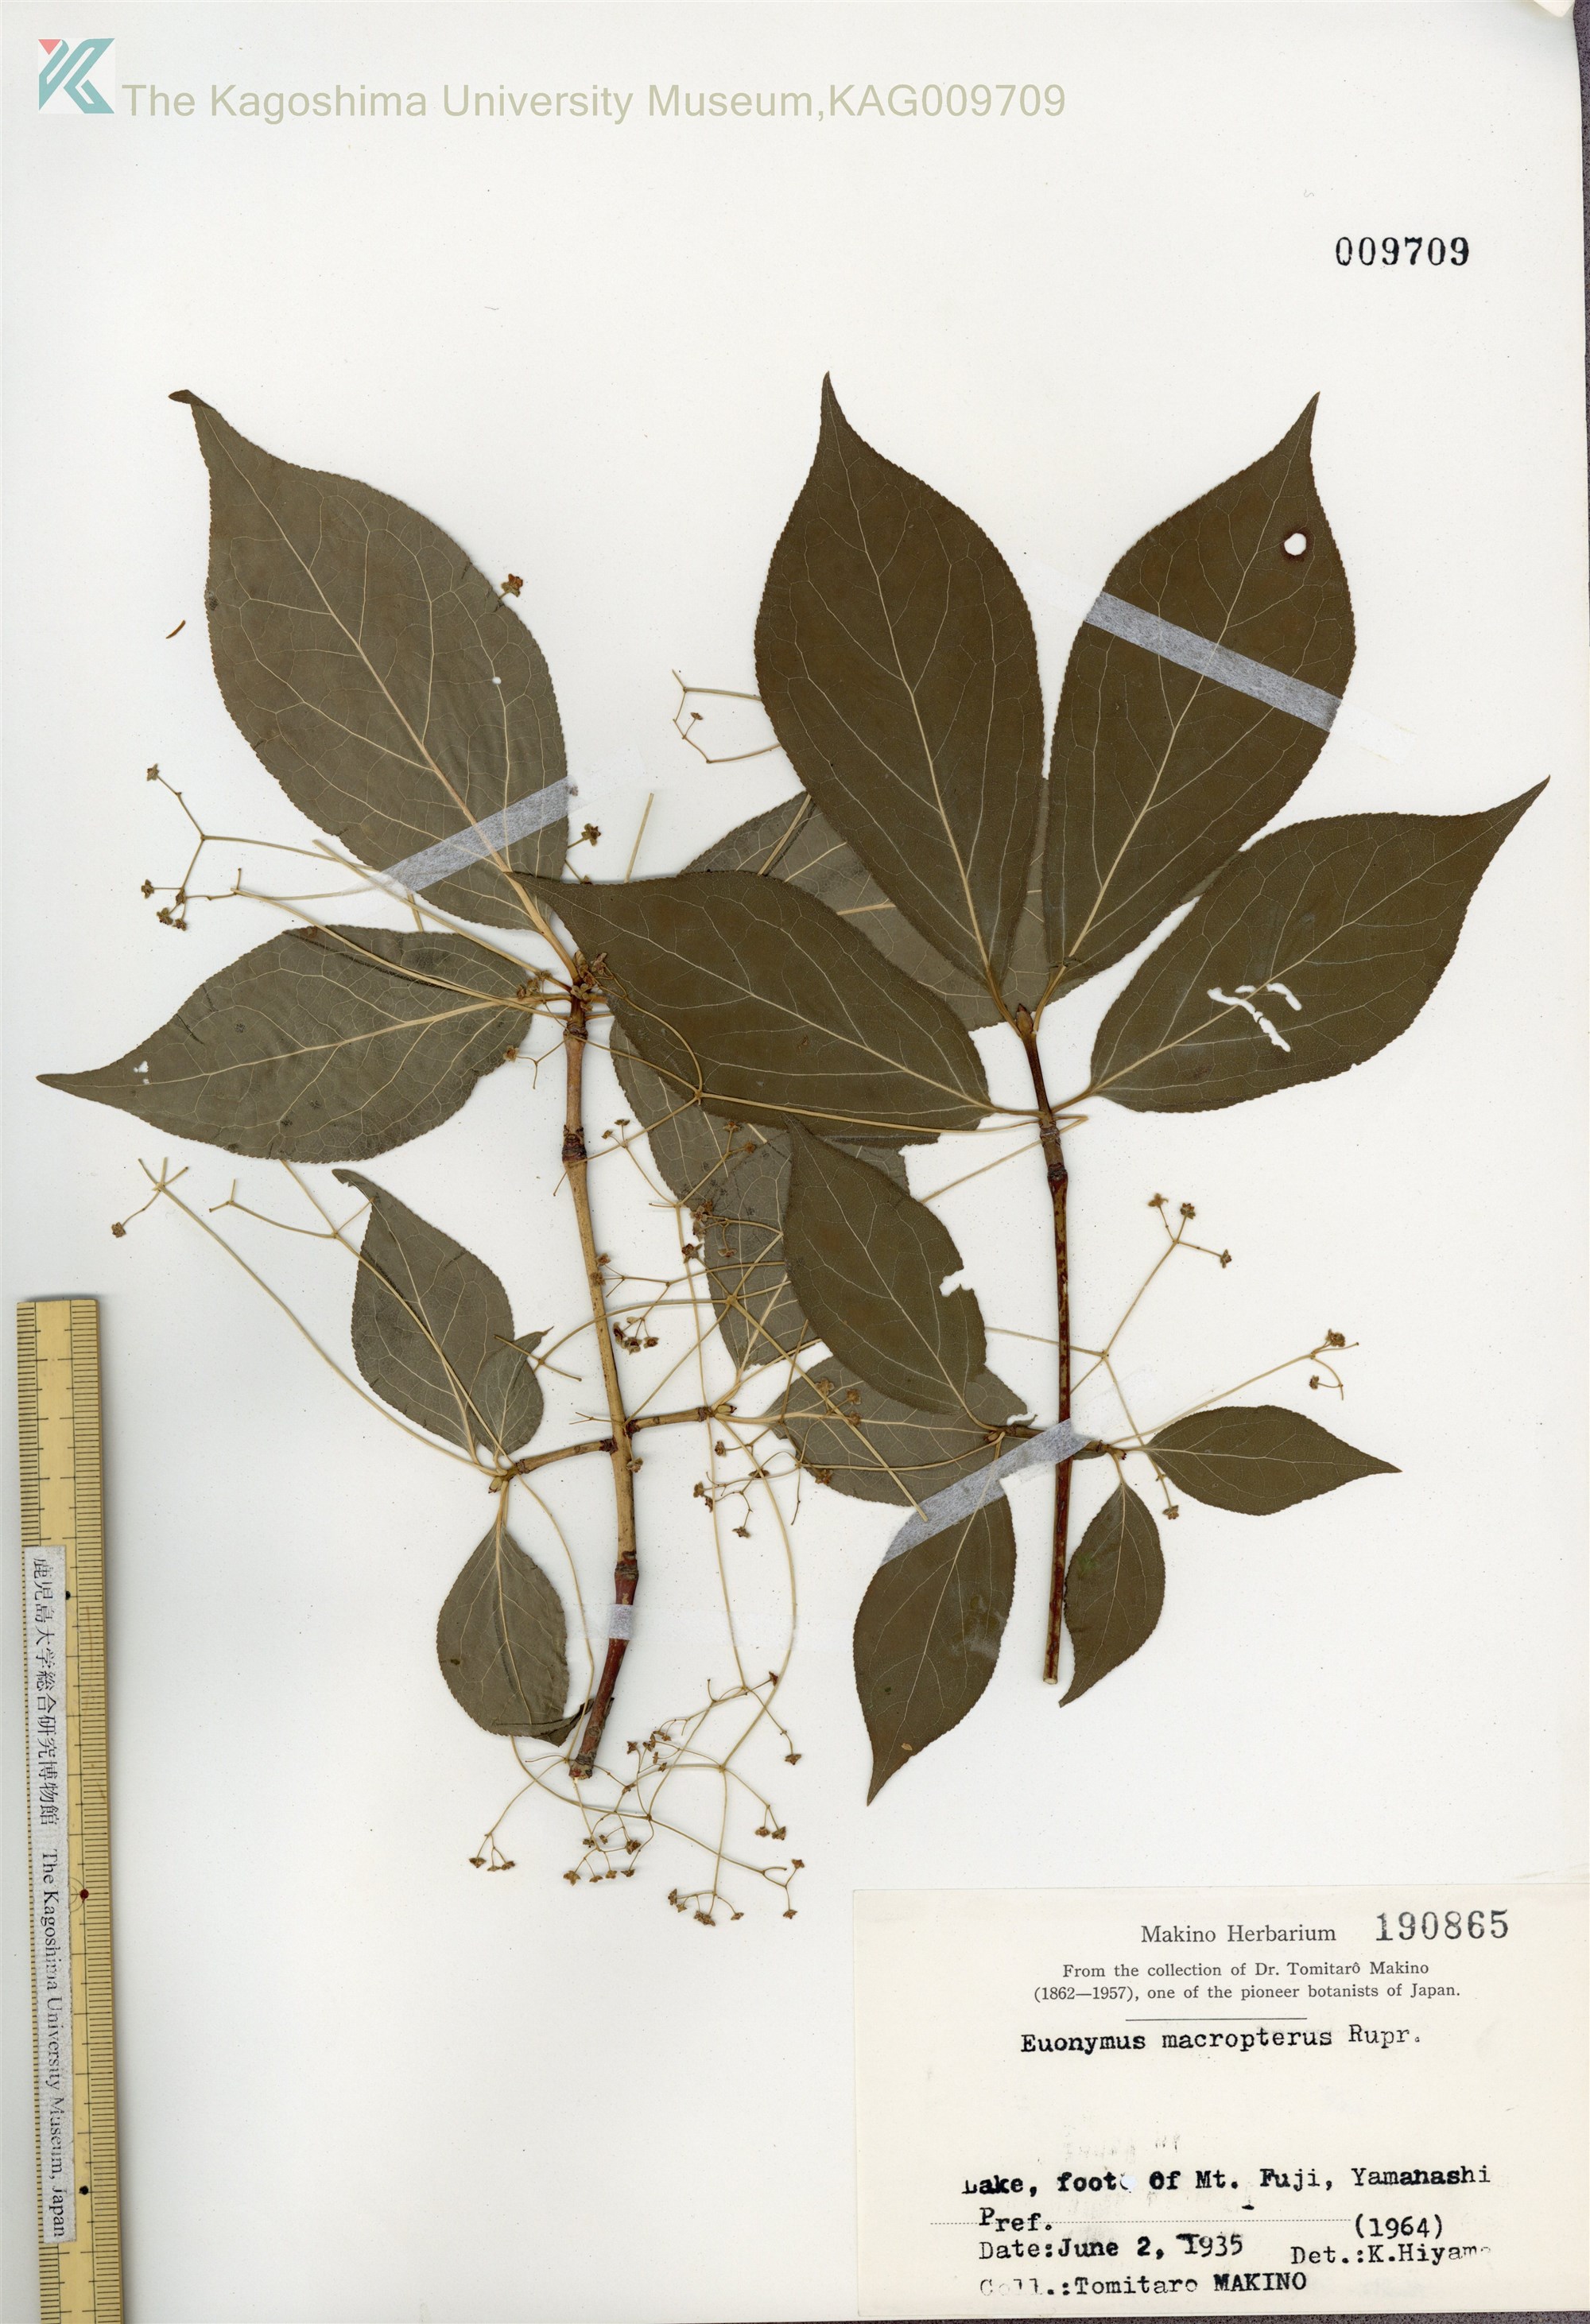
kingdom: Plantae
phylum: Tracheophyta
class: Magnoliopsida
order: Celastrales
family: Celastraceae
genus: Euonymus
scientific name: Euonymus macropterus
